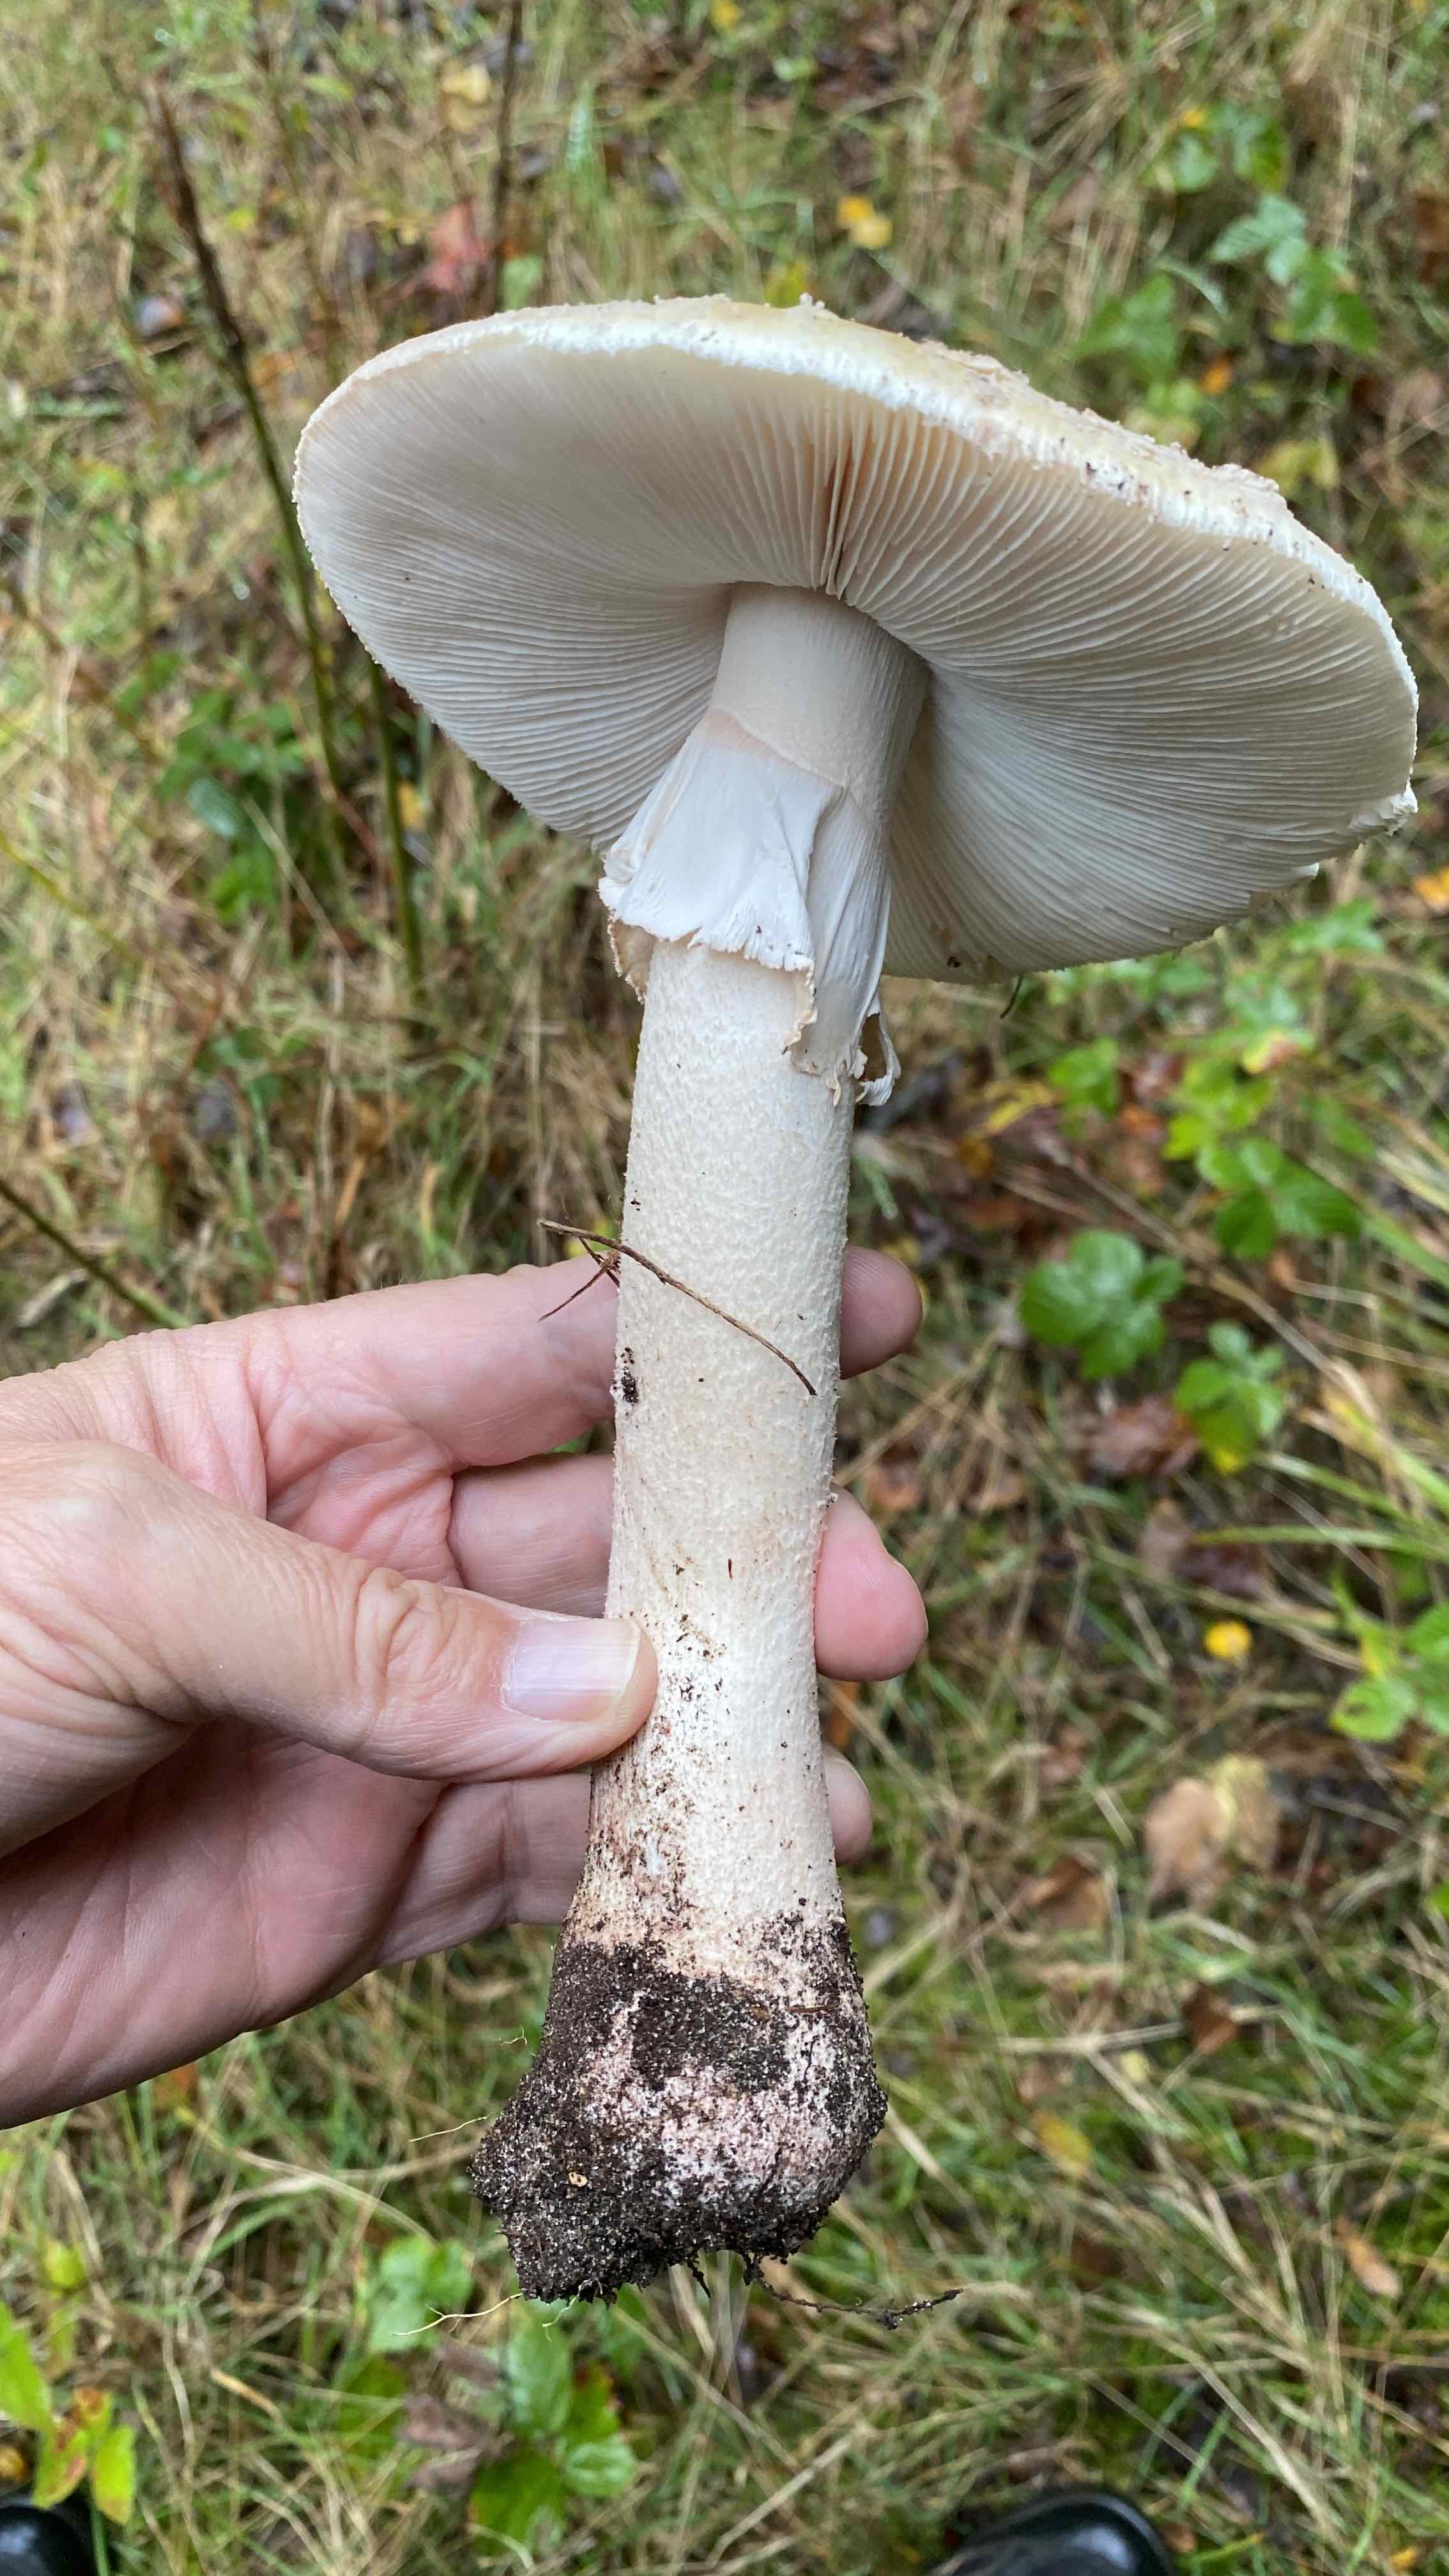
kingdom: Fungi
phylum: Basidiomycota
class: Agaricomycetes
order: Agaricales
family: Amanitaceae
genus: Amanita
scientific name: Amanita rubescens
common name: rødmende fluesvamp
